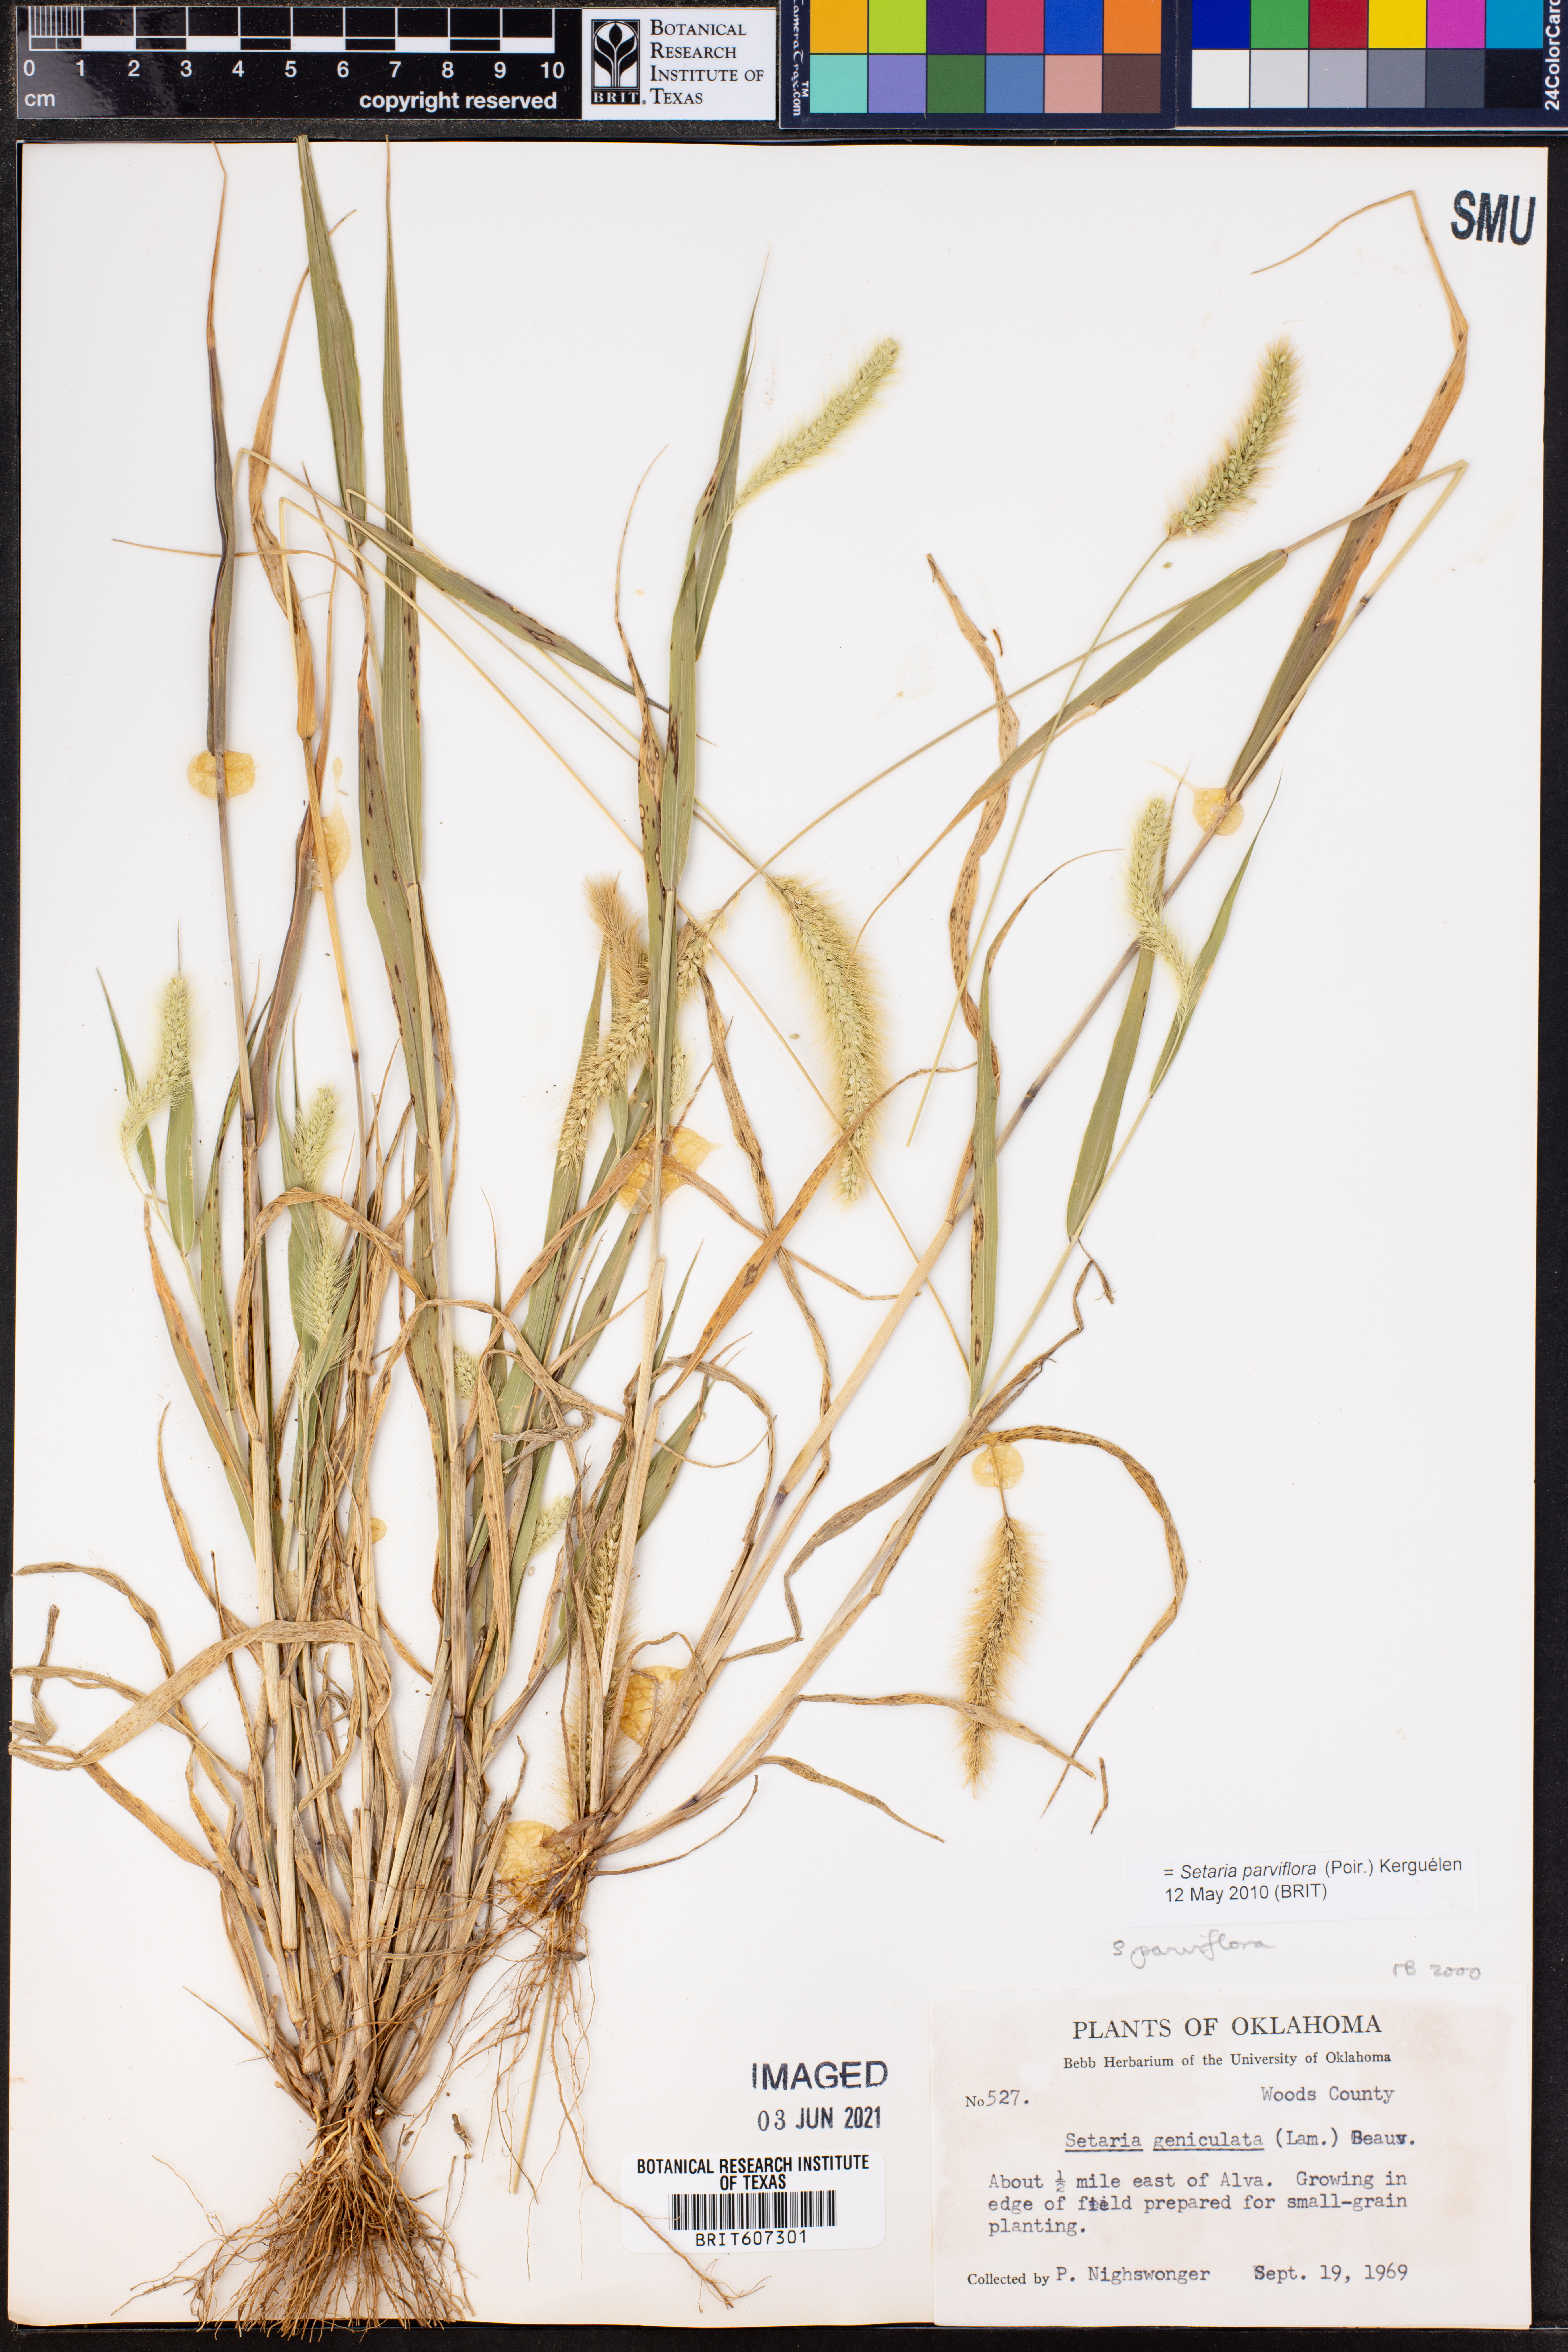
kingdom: Plantae
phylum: Tracheophyta
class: Liliopsida
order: Poales
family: Poaceae
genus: Setaria
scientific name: Setaria parviflora
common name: Knotroot bristle-grass
